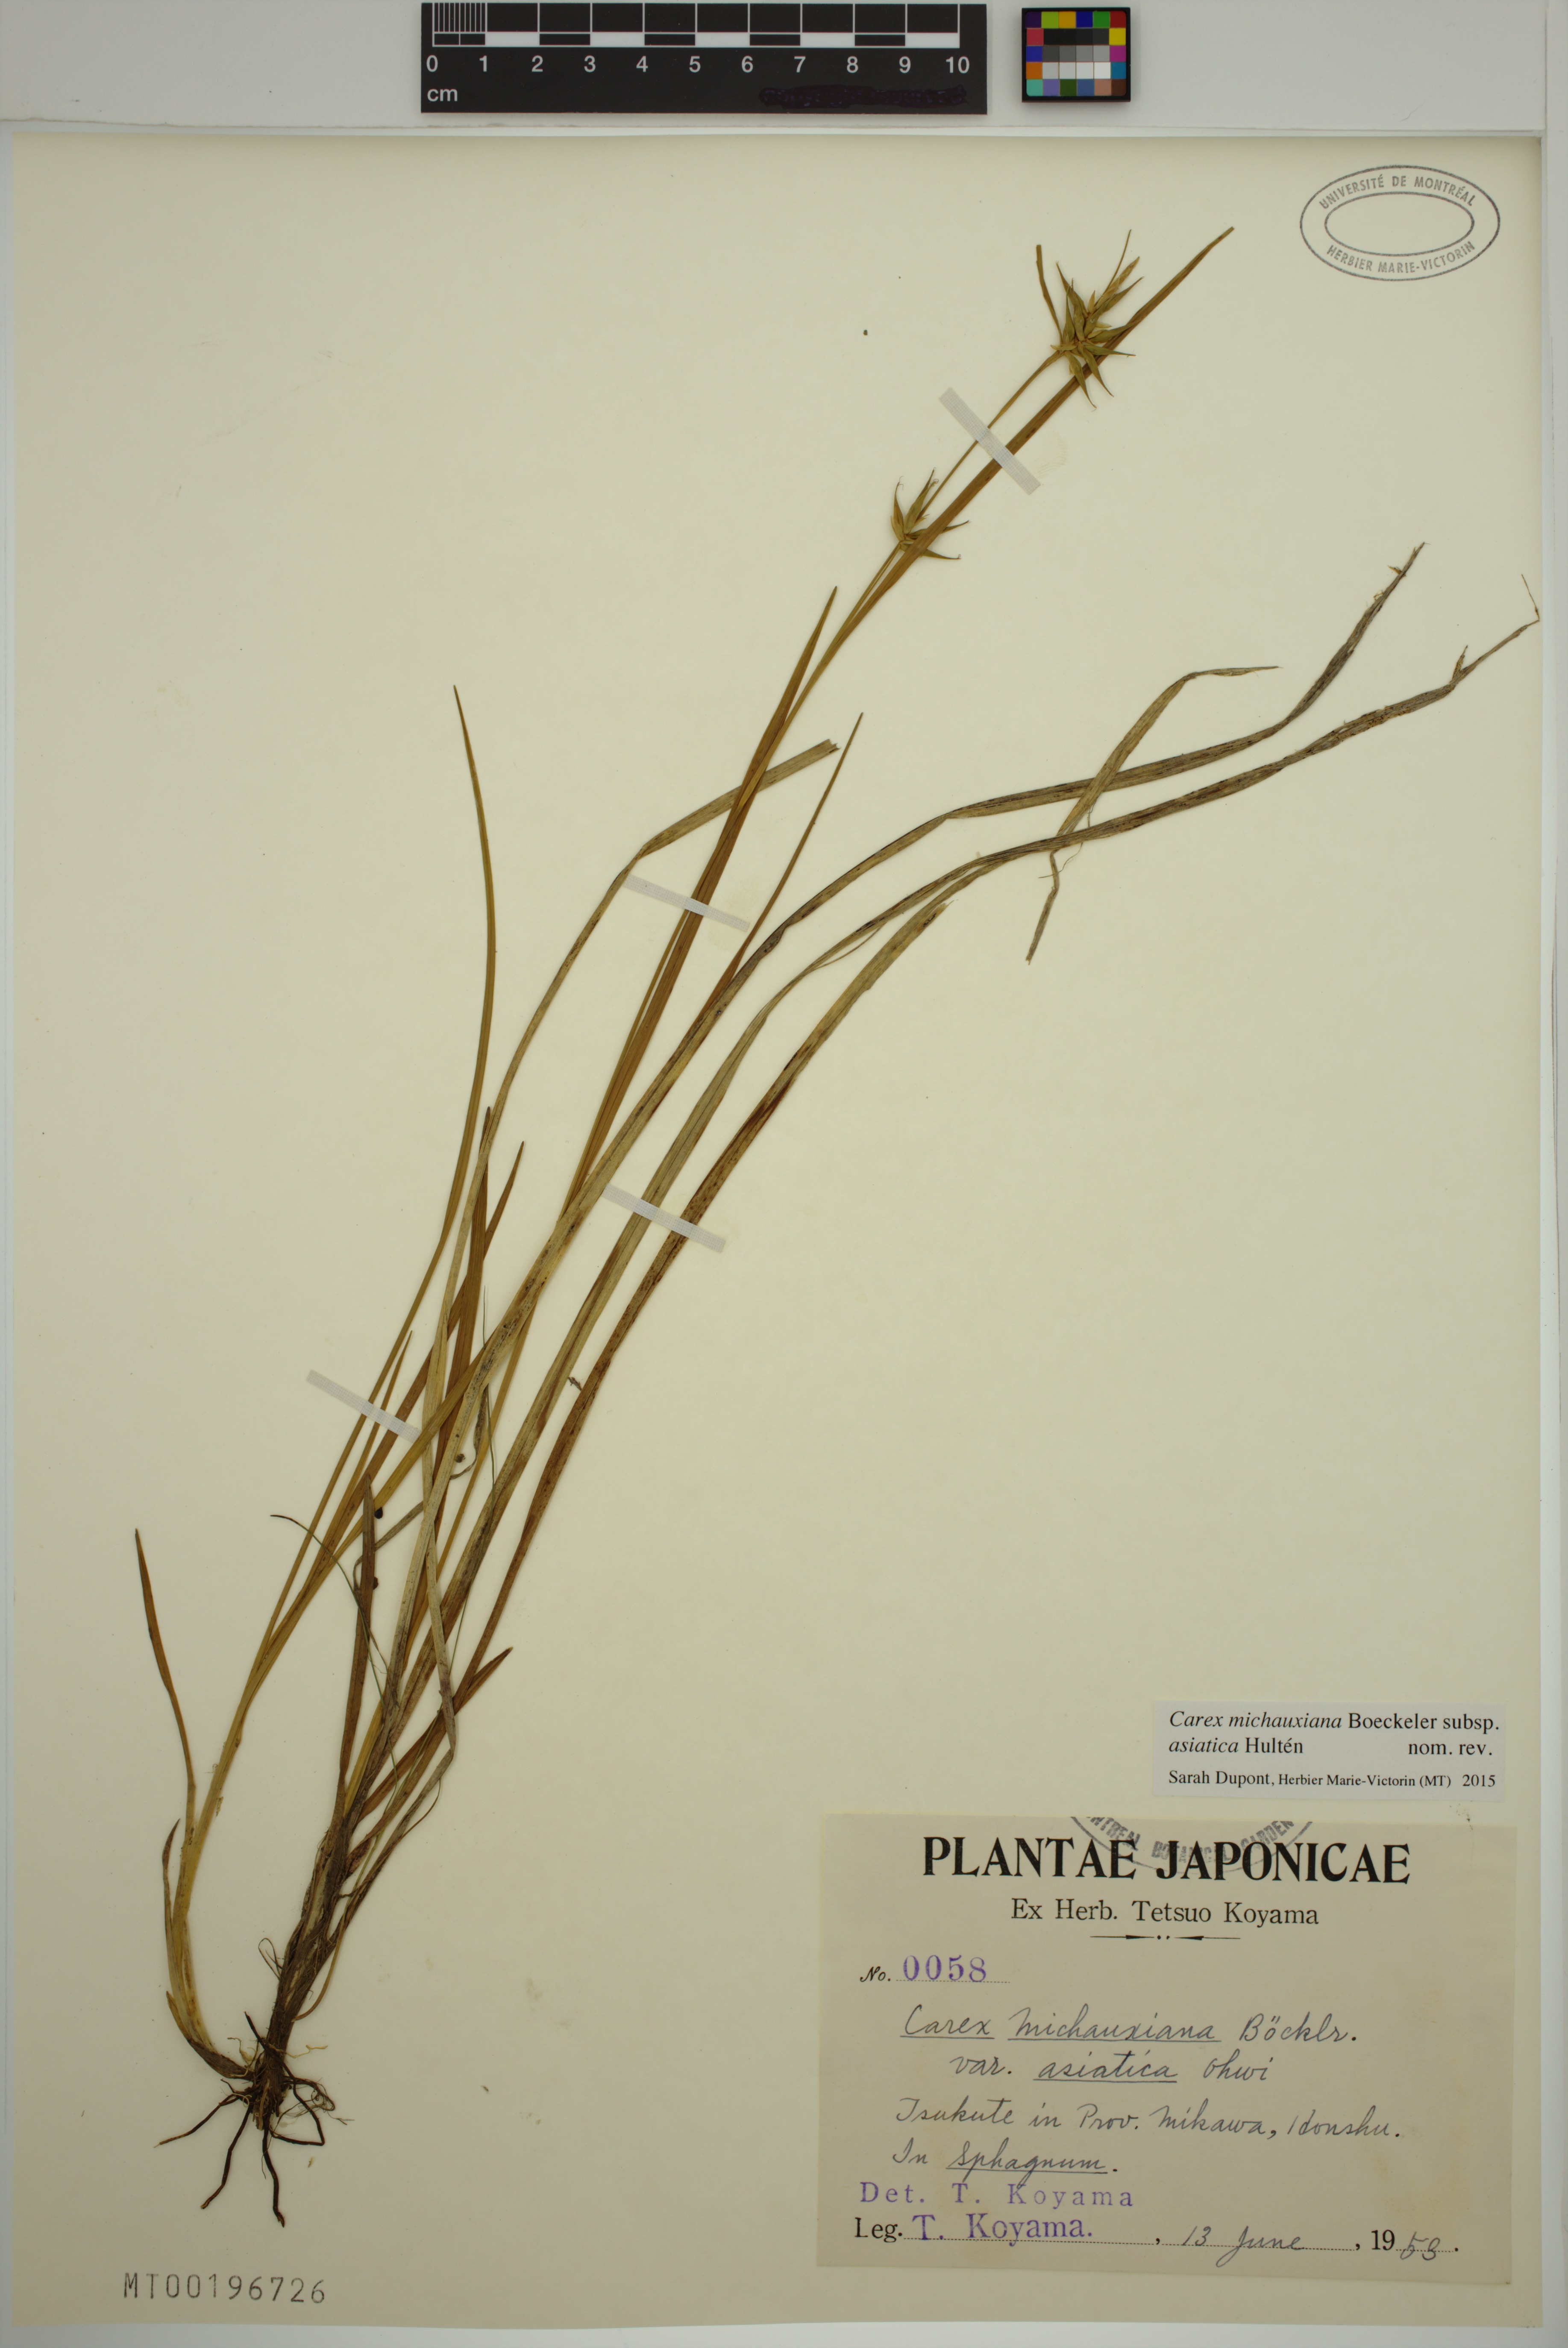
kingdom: Plantae
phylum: Tracheophyta
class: Liliopsida
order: Poales
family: Cyperaceae
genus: Carex
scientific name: Carex michauxiana
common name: Michaux's sedge
